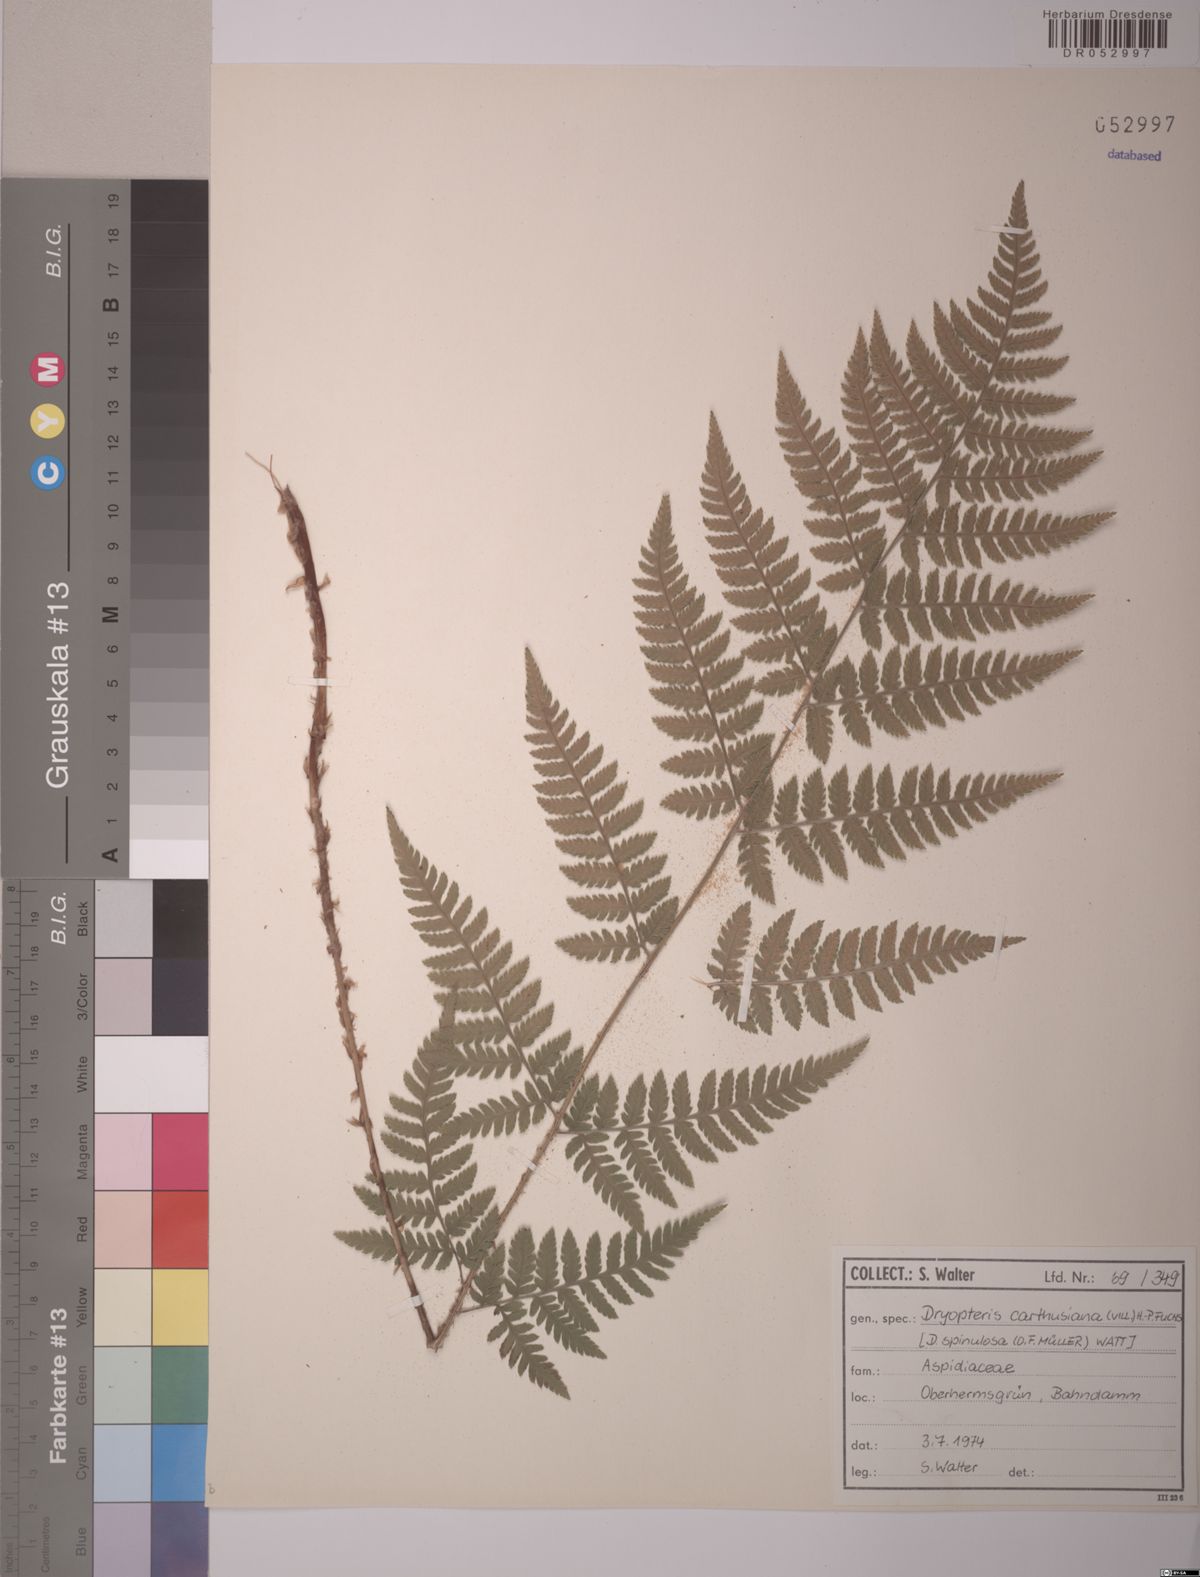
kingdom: Plantae
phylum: Tracheophyta
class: Polypodiopsida
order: Polypodiales
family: Dryopteridaceae
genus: Dryopteris
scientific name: Dryopteris carthusiana
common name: Narrow buckler-fern
